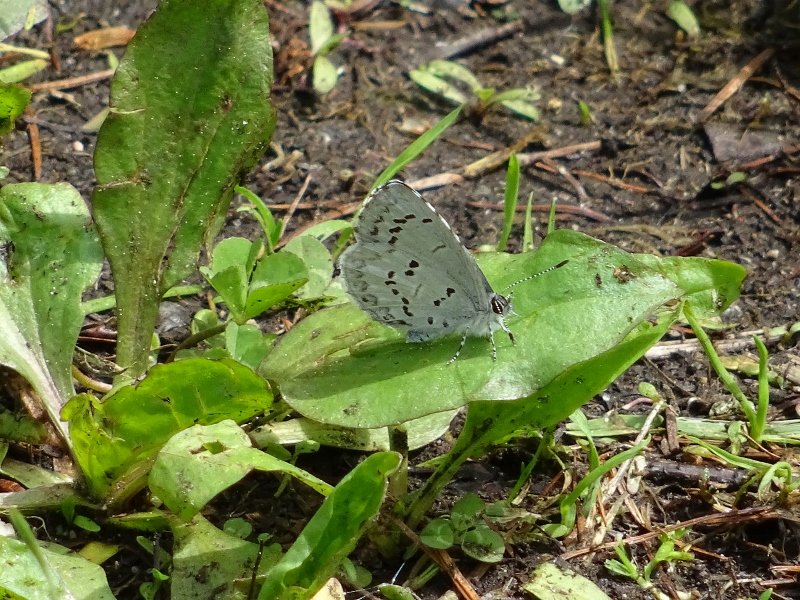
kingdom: Animalia
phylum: Arthropoda
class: Insecta
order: Lepidoptera
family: Lycaenidae
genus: Celastrina
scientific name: Celastrina
